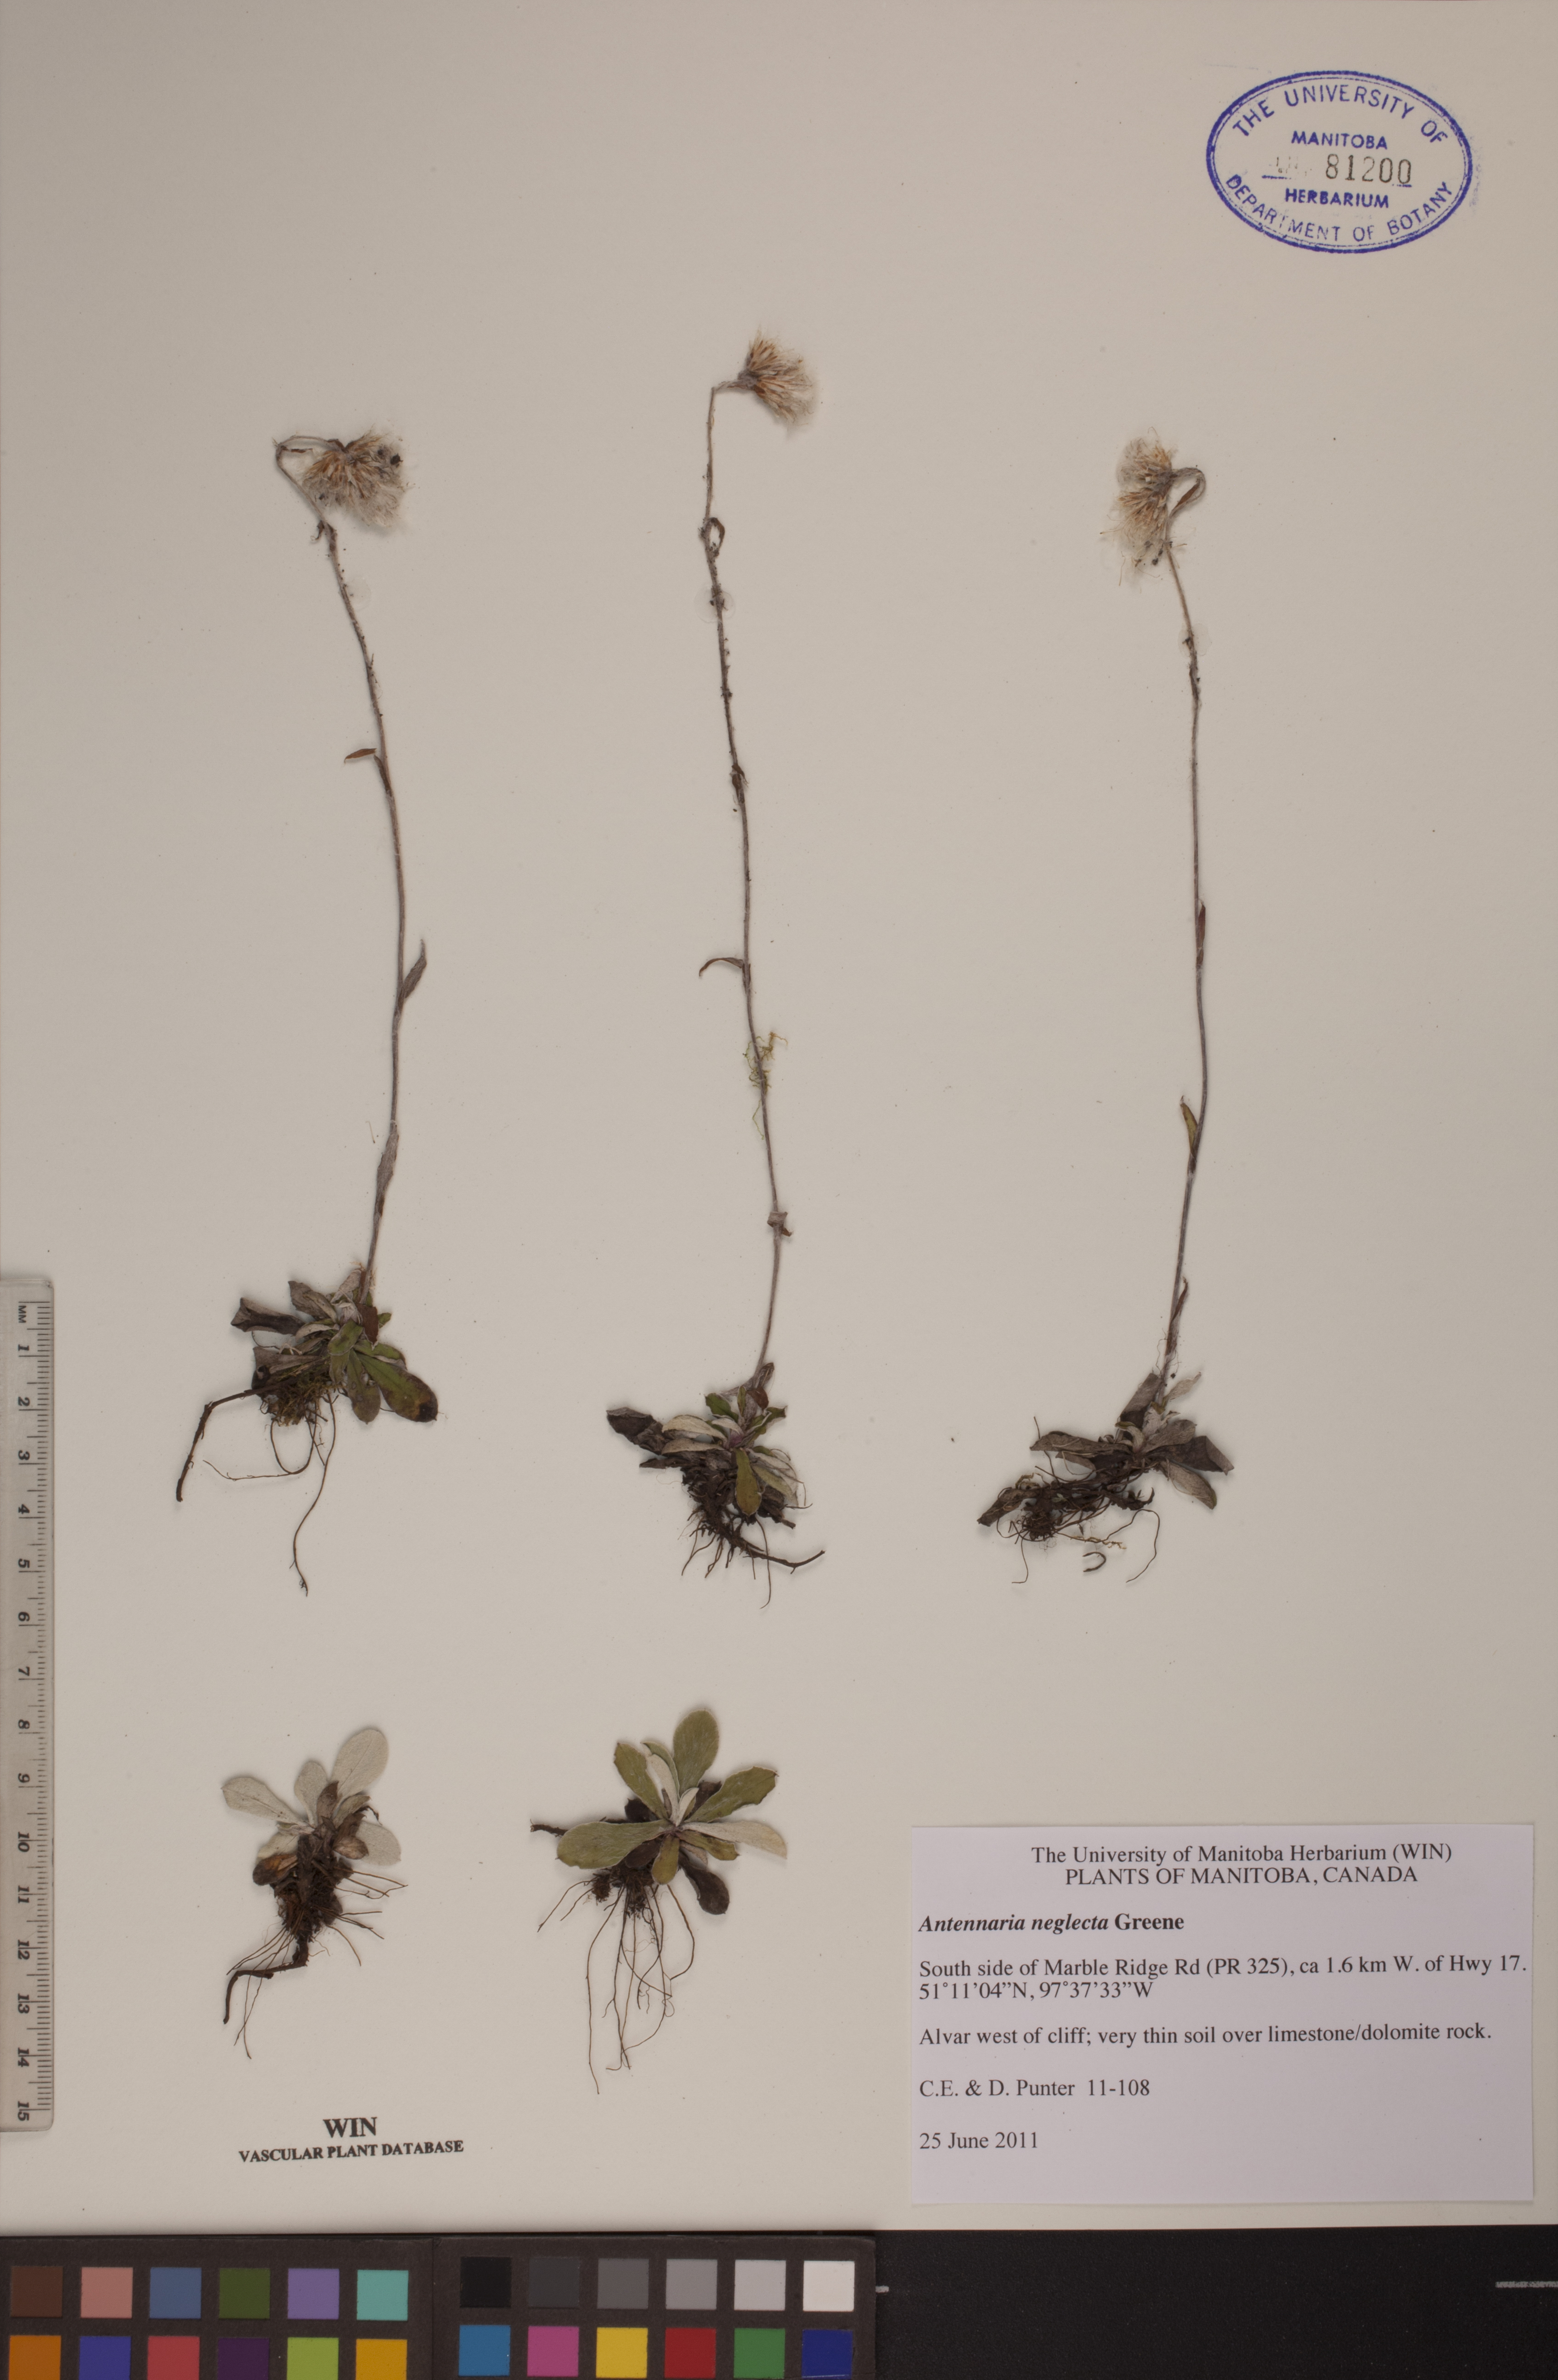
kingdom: Plantae
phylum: Tracheophyta
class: Magnoliopsida
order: Asterales
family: Asteraceae
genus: Antennaria
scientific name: Antennaria neglecta
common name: Field pussytoes
